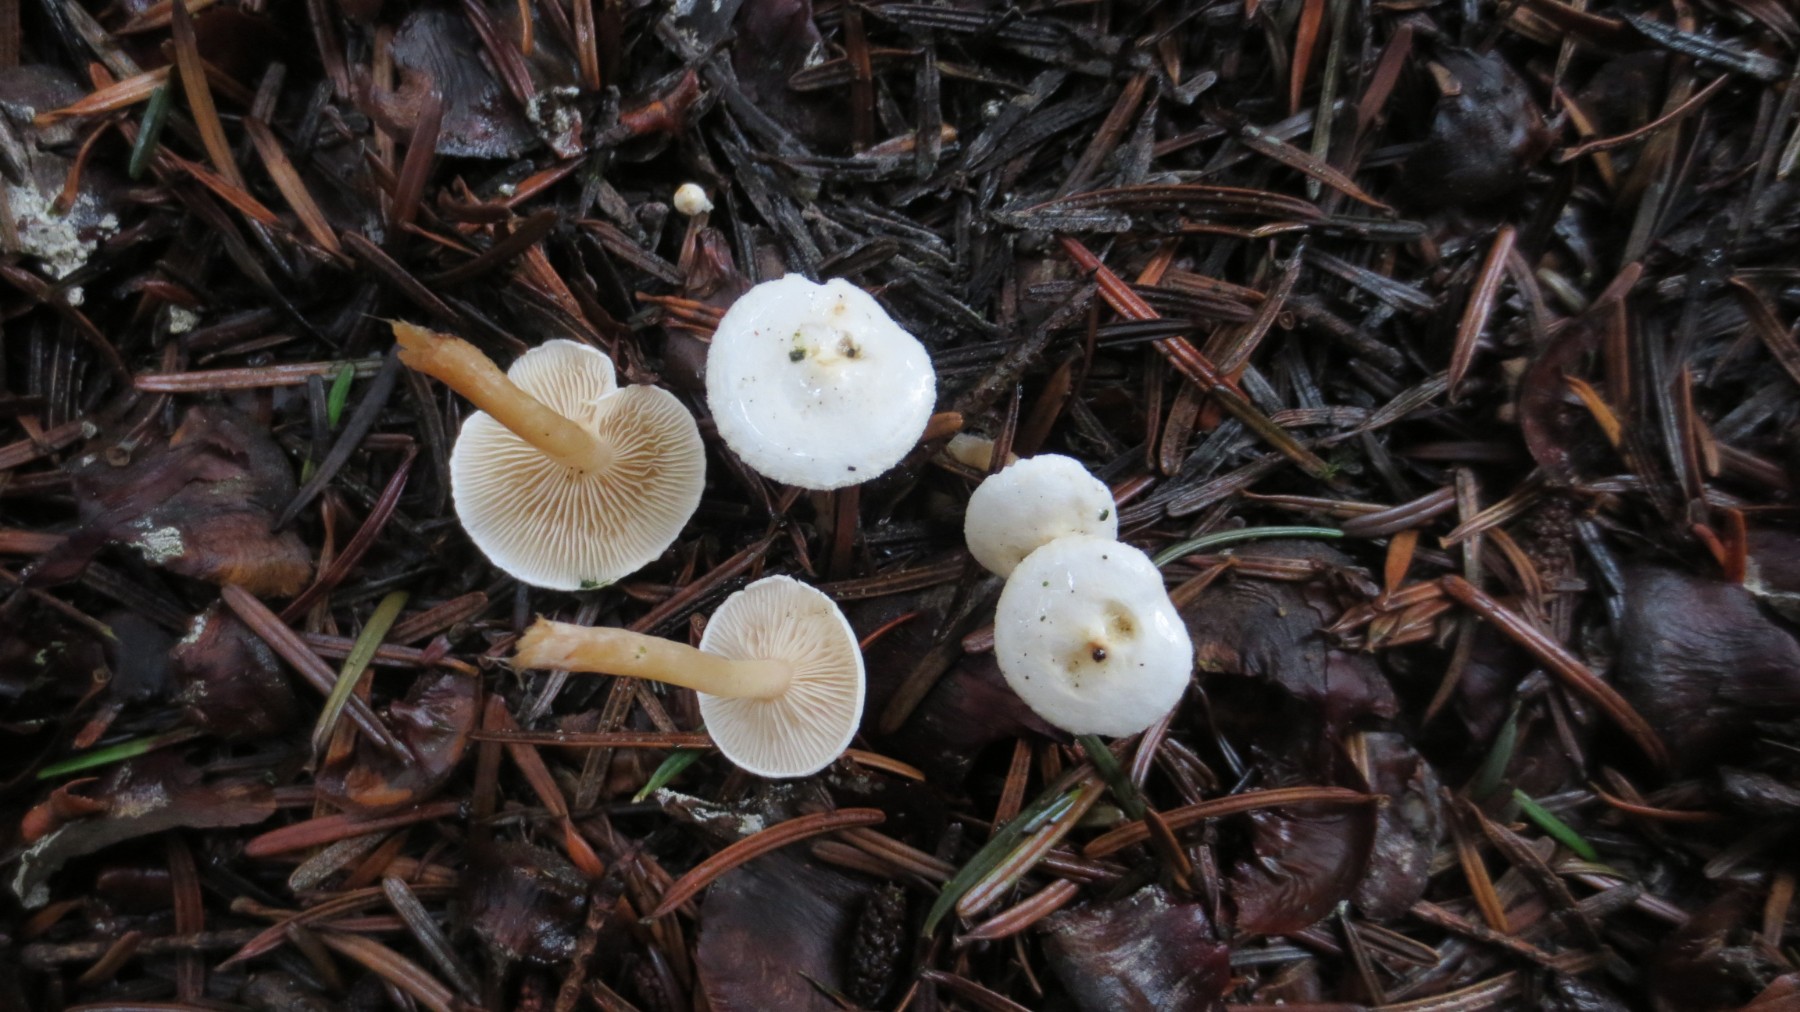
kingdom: Fungi
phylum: Basidiomycota
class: Agaricomycetes
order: Agaricales
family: Tricholomataceae
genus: Ripartites
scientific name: Ripartites tricholoma
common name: almindelig skæghat
